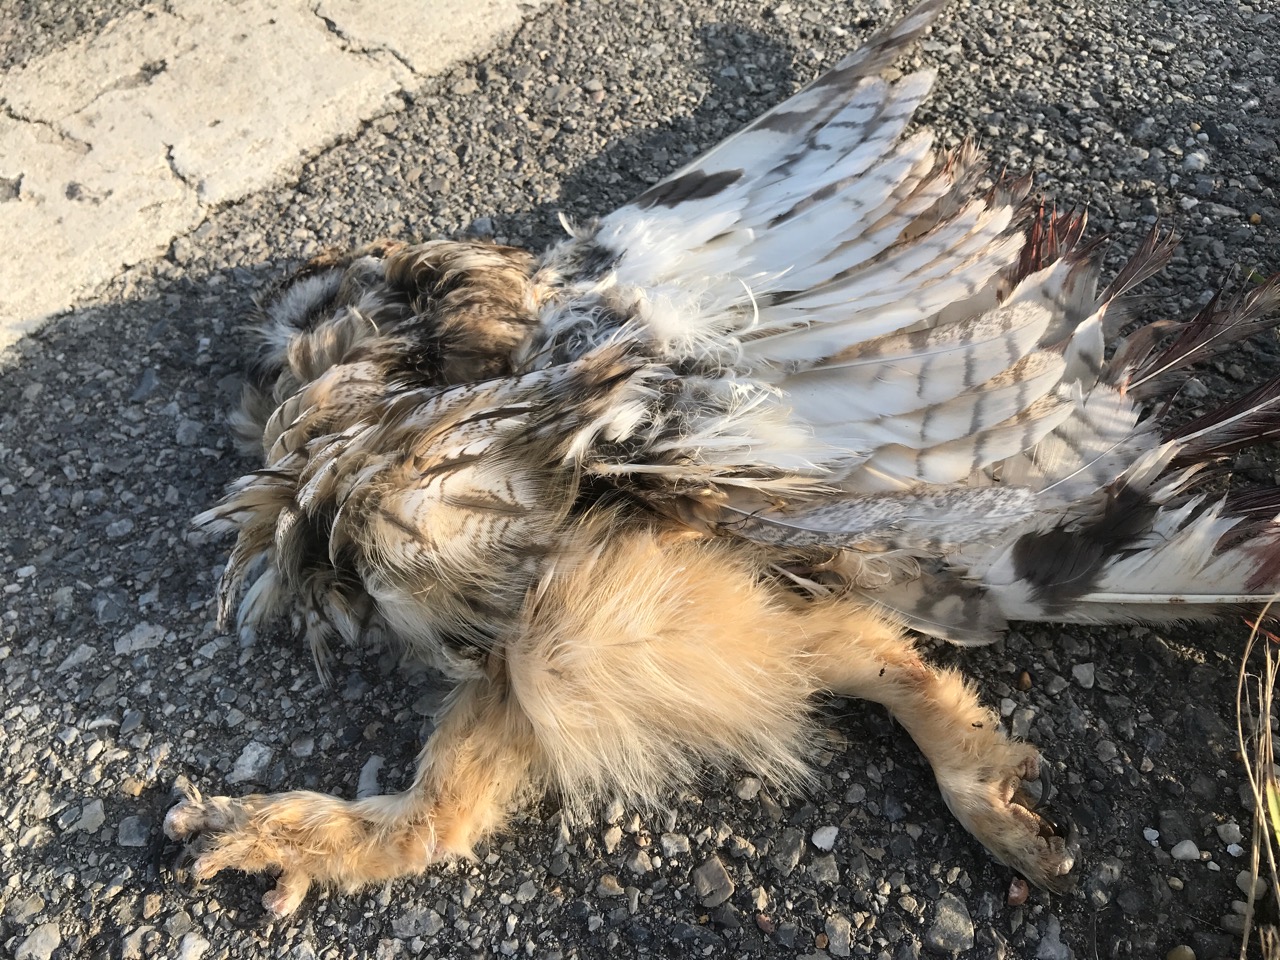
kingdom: Animalia
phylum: Chordata
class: Aves
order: Strigiformes
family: Strigidae
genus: Asio
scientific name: Asio otus
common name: Long-eared owl
